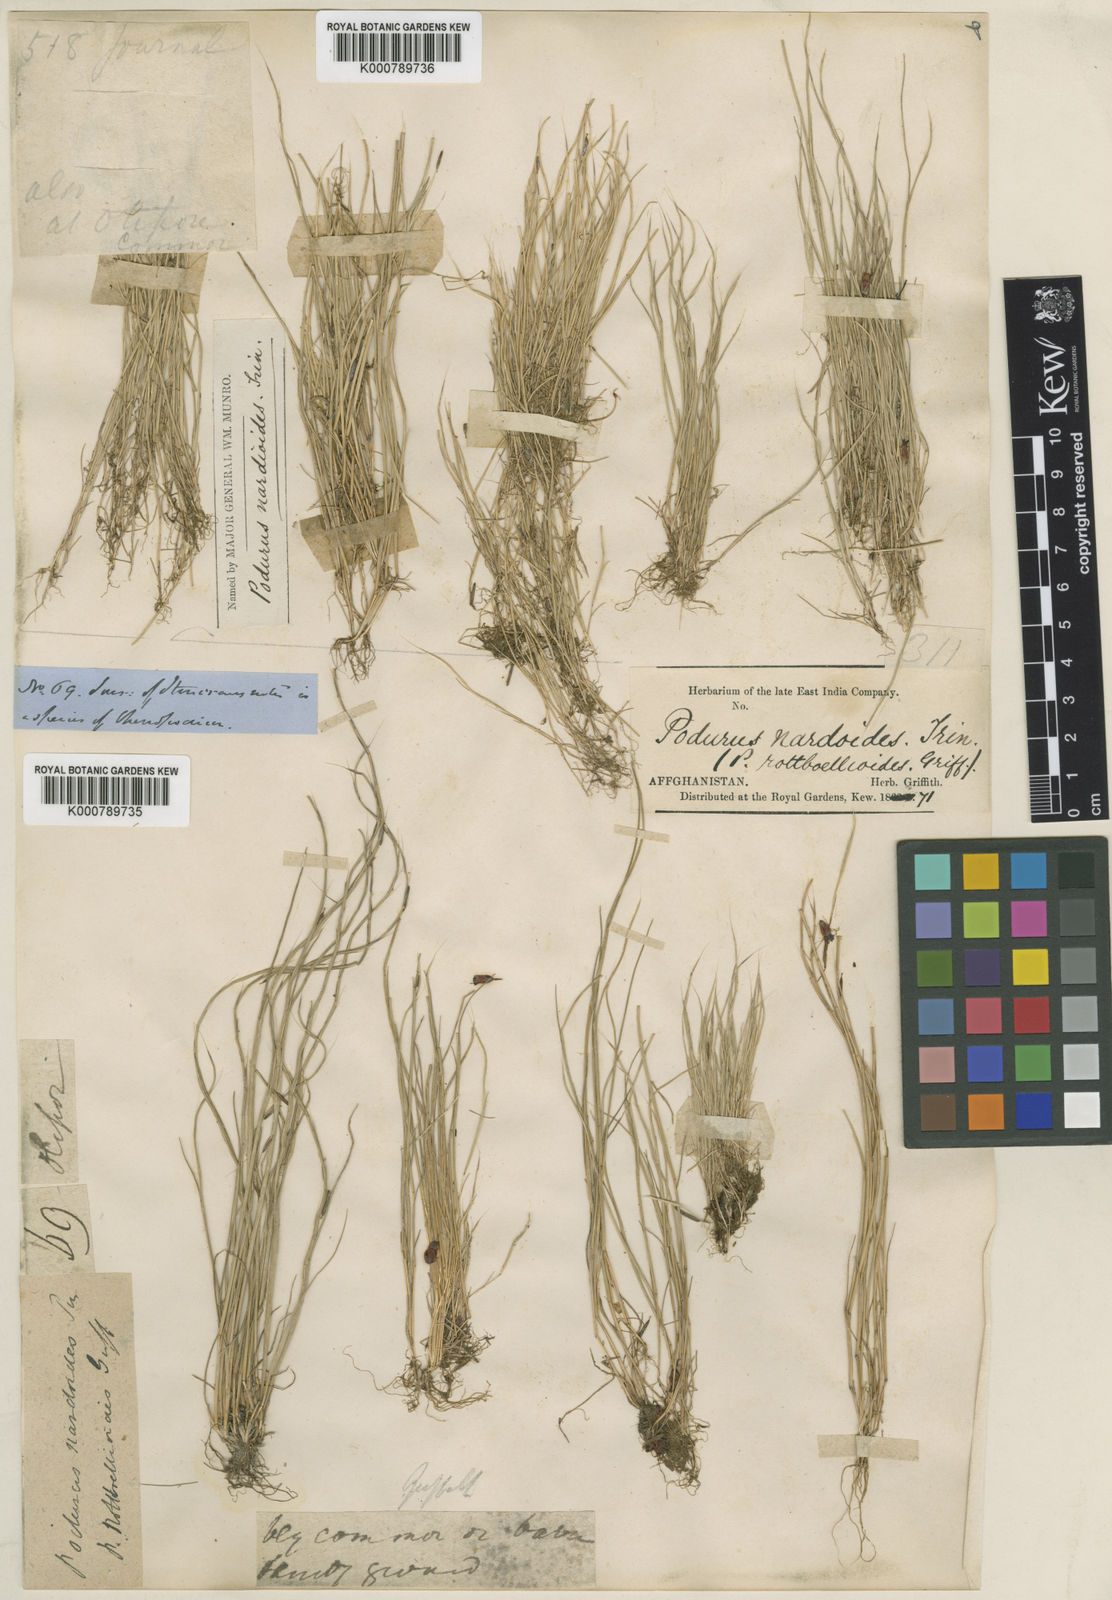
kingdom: Plantae
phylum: Tracheophyta
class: Liliopsida
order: Poales
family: Poaceae
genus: Festuca
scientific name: Festuca incurva
